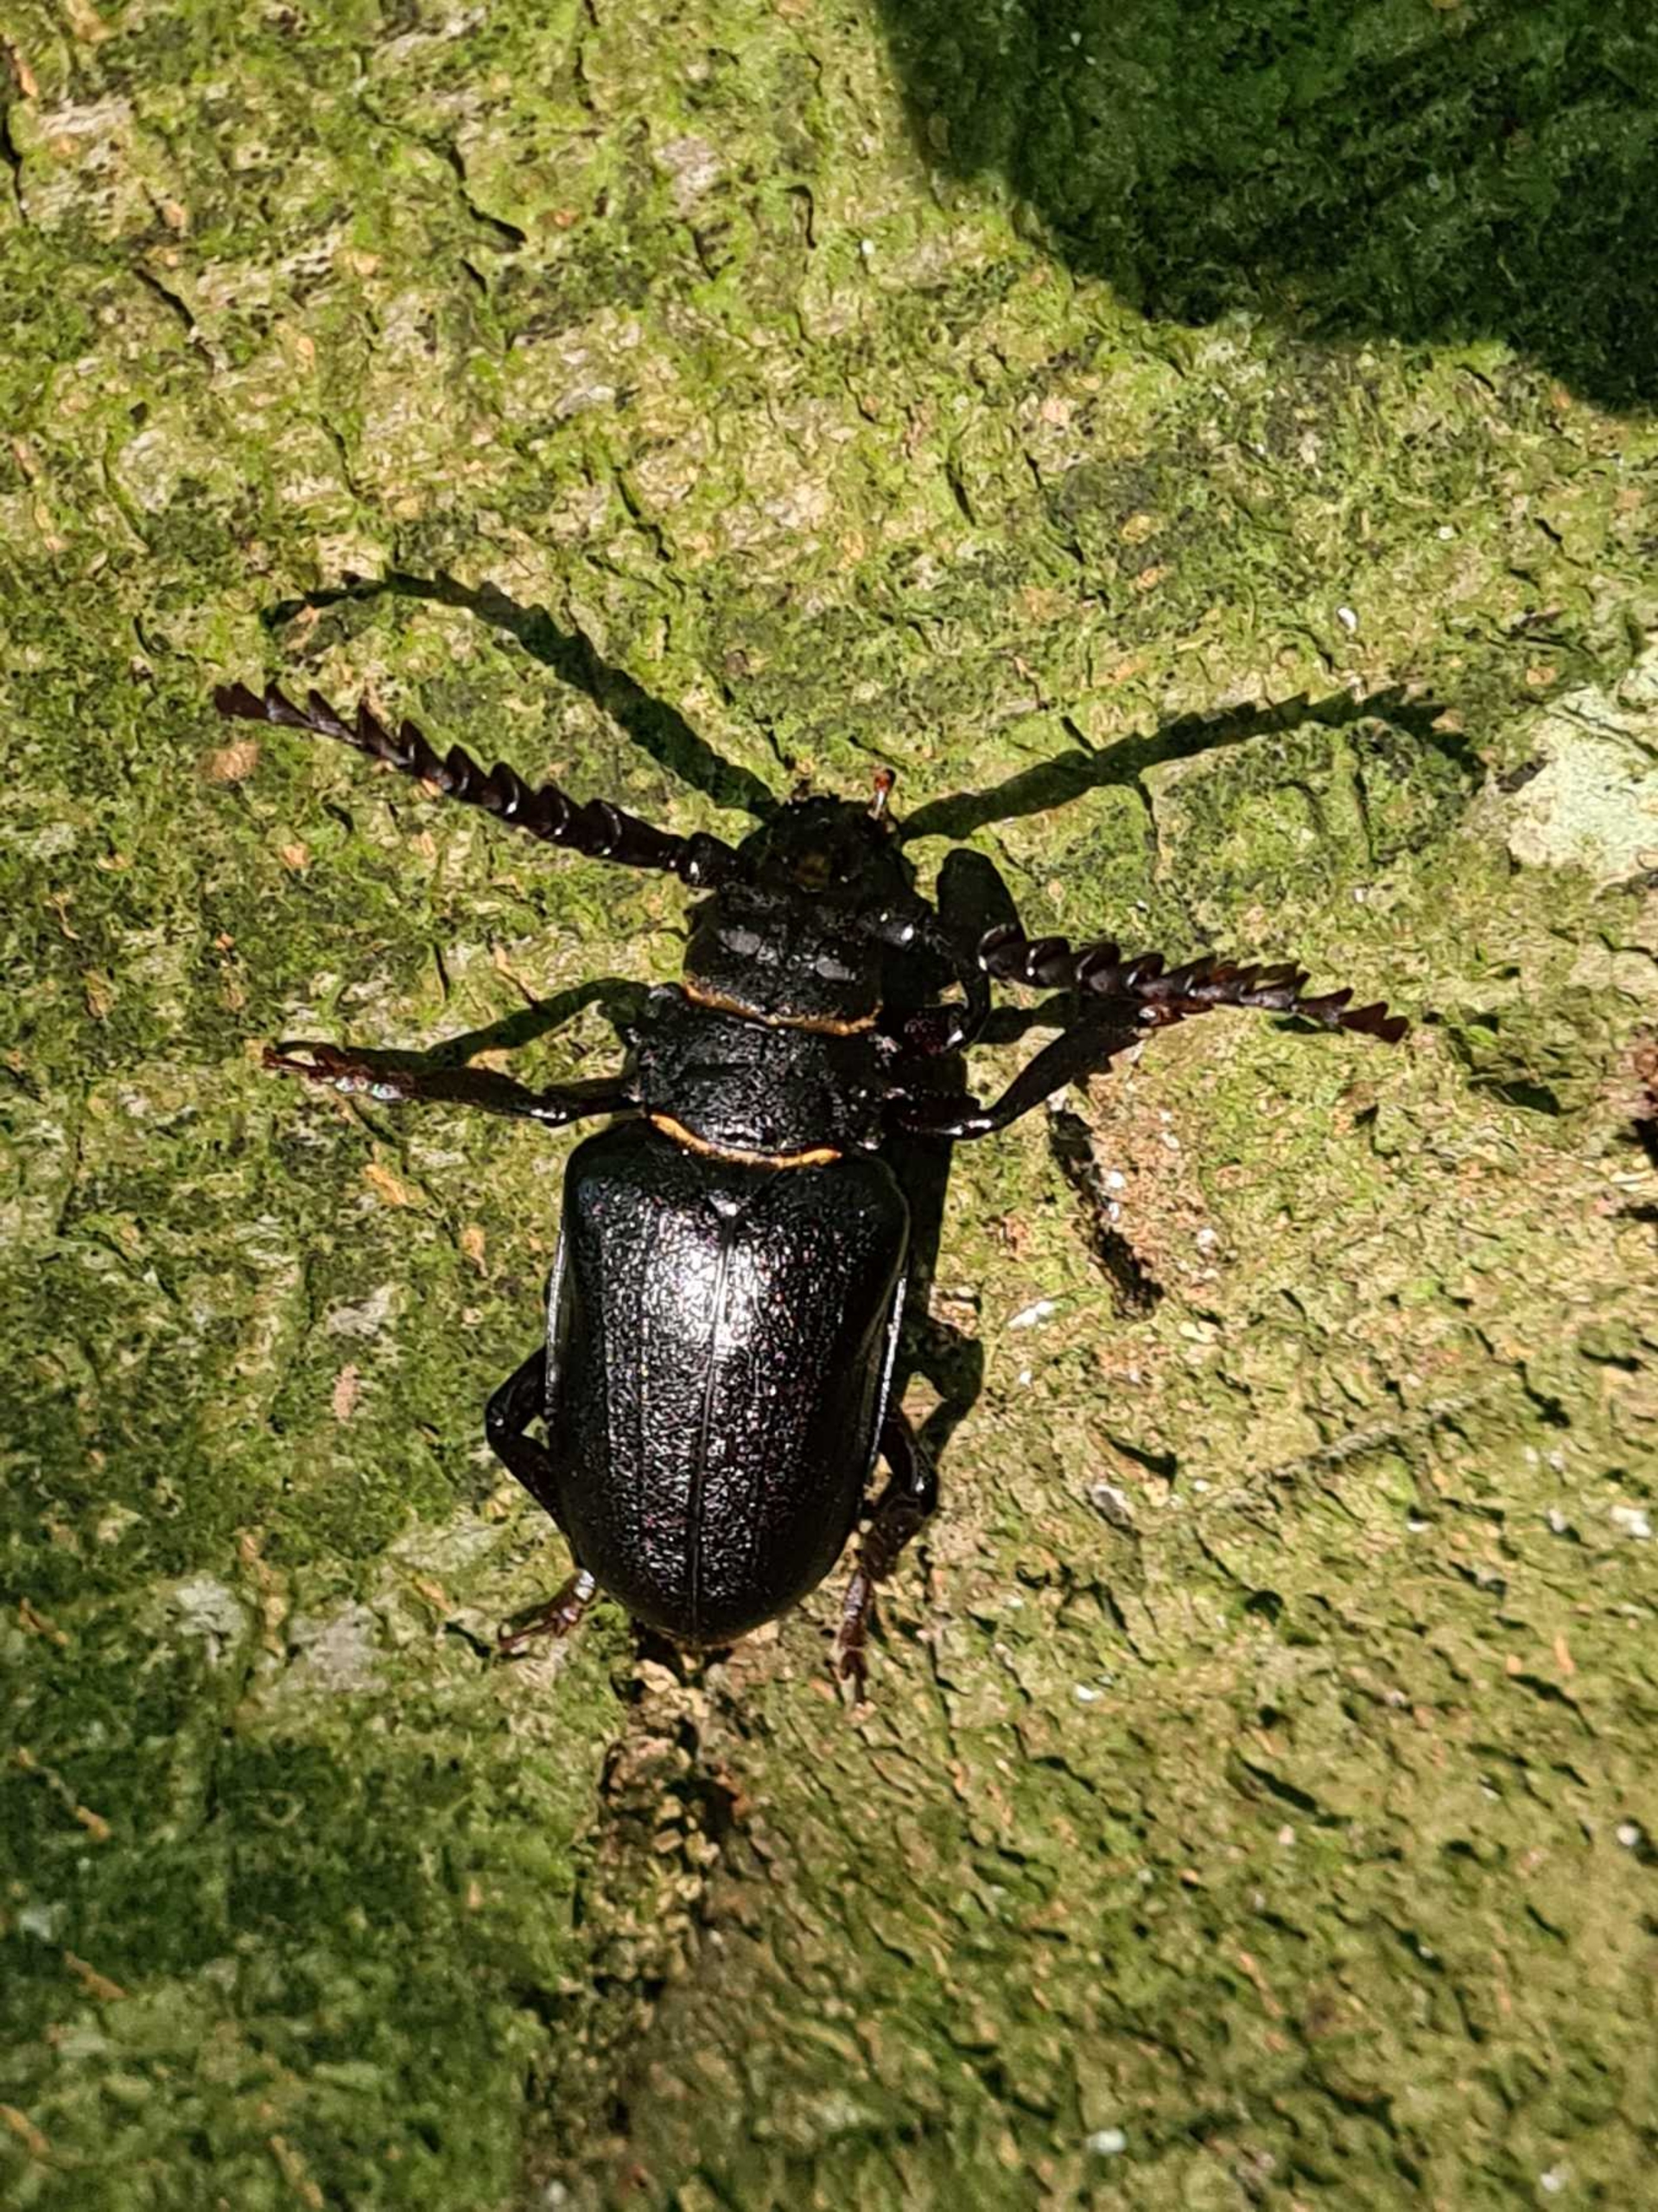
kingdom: Animalia
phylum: Arthropoda
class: Insecta
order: Coleoptera
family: Cerambycidae
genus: Prionus
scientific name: Prionus coriarius
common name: Garver
